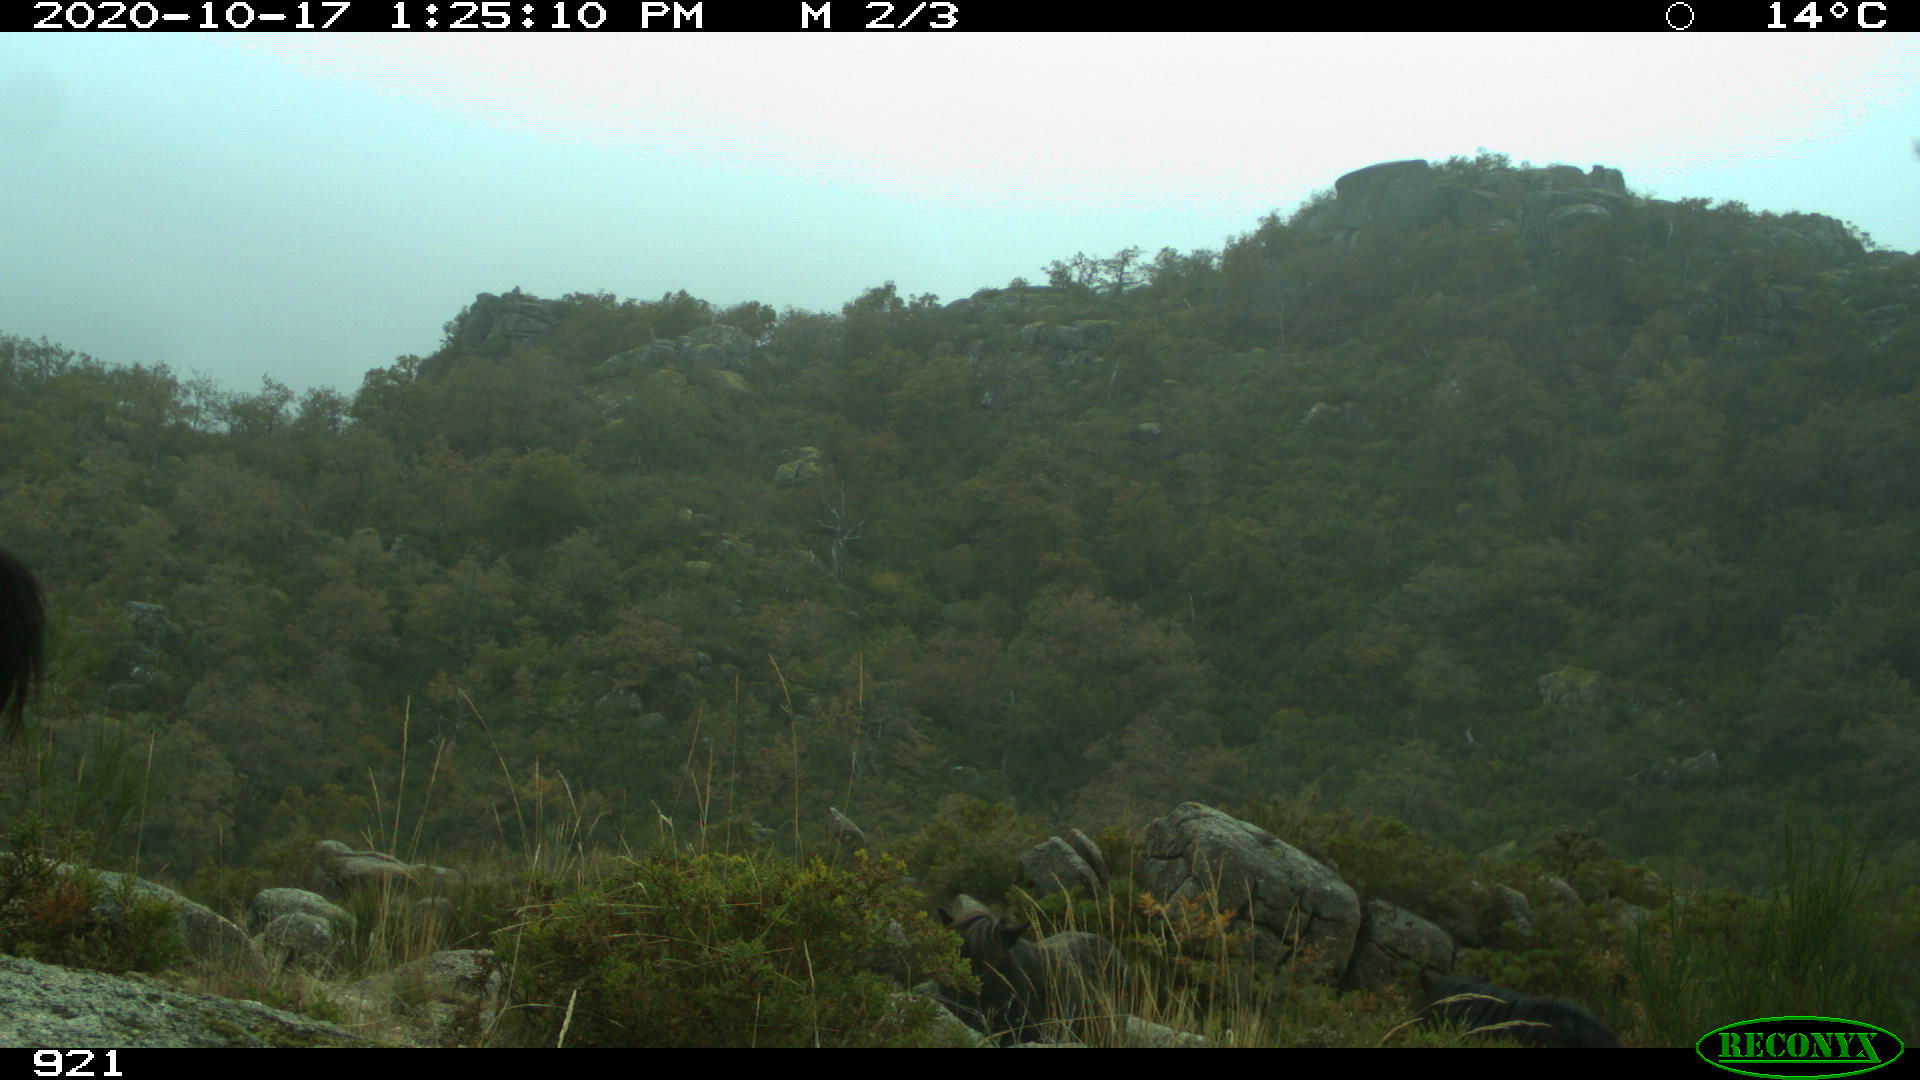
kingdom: Animalia
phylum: Chordata
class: Mammalia
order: Perissodactyla
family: Equidae
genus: Equus
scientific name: Equus caballus
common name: Horse
